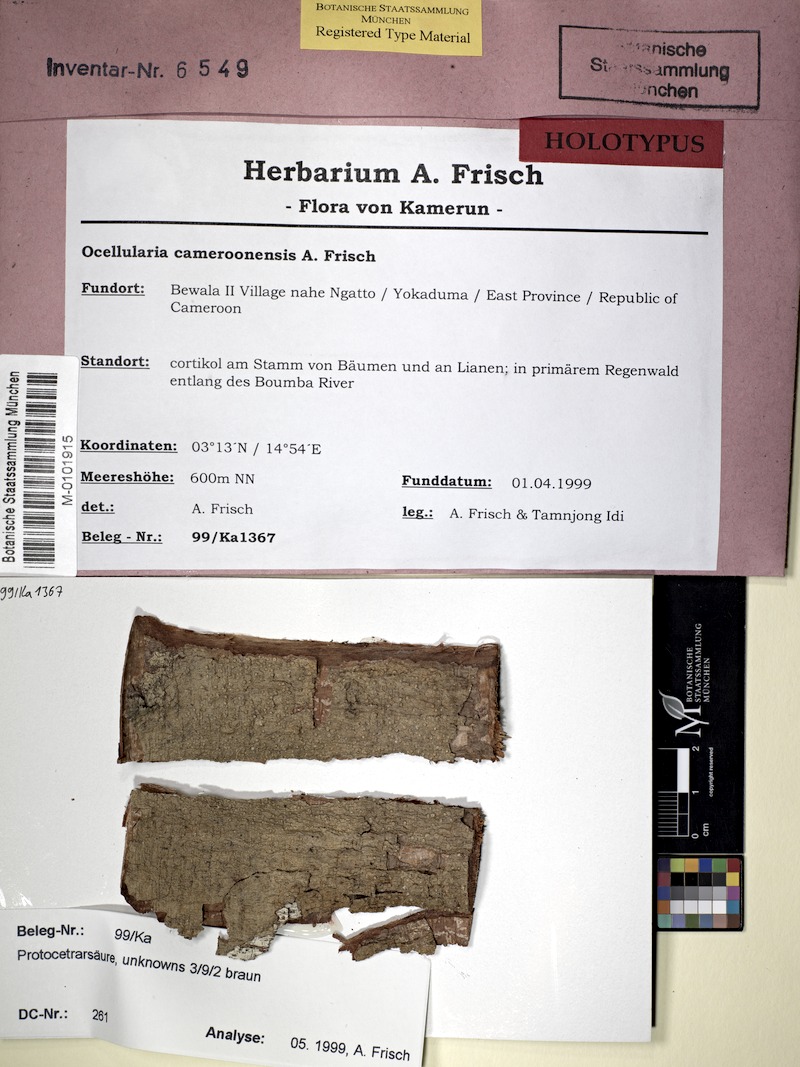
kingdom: Fungi
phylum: Ascomycota
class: Lecanoromycetes
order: Ostropales
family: Graphidaceae
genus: Ocellularia
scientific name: Ocellularia cameroonensis
